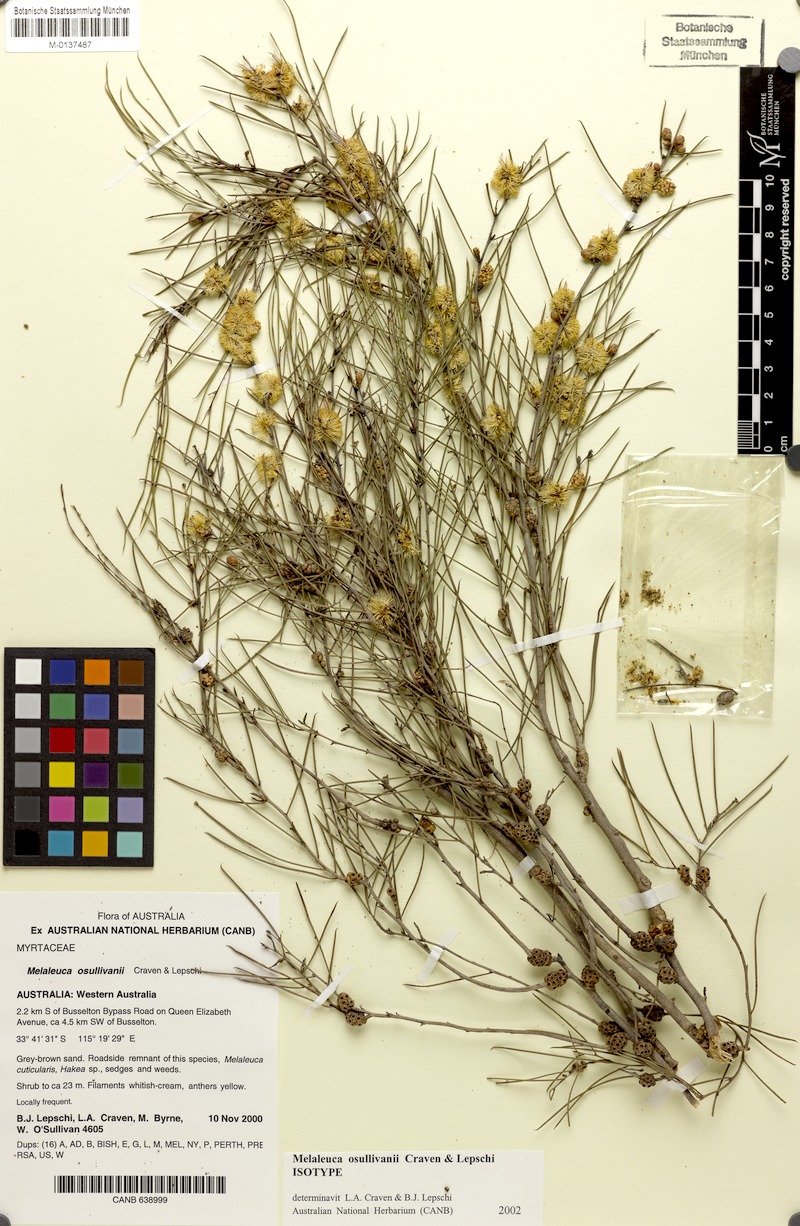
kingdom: Plantae
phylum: Tracheophyta
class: Magnoliopsida
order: Myrtales
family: Myrtaceae
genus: Melaleuca
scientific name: Melaleuca osullivanii
